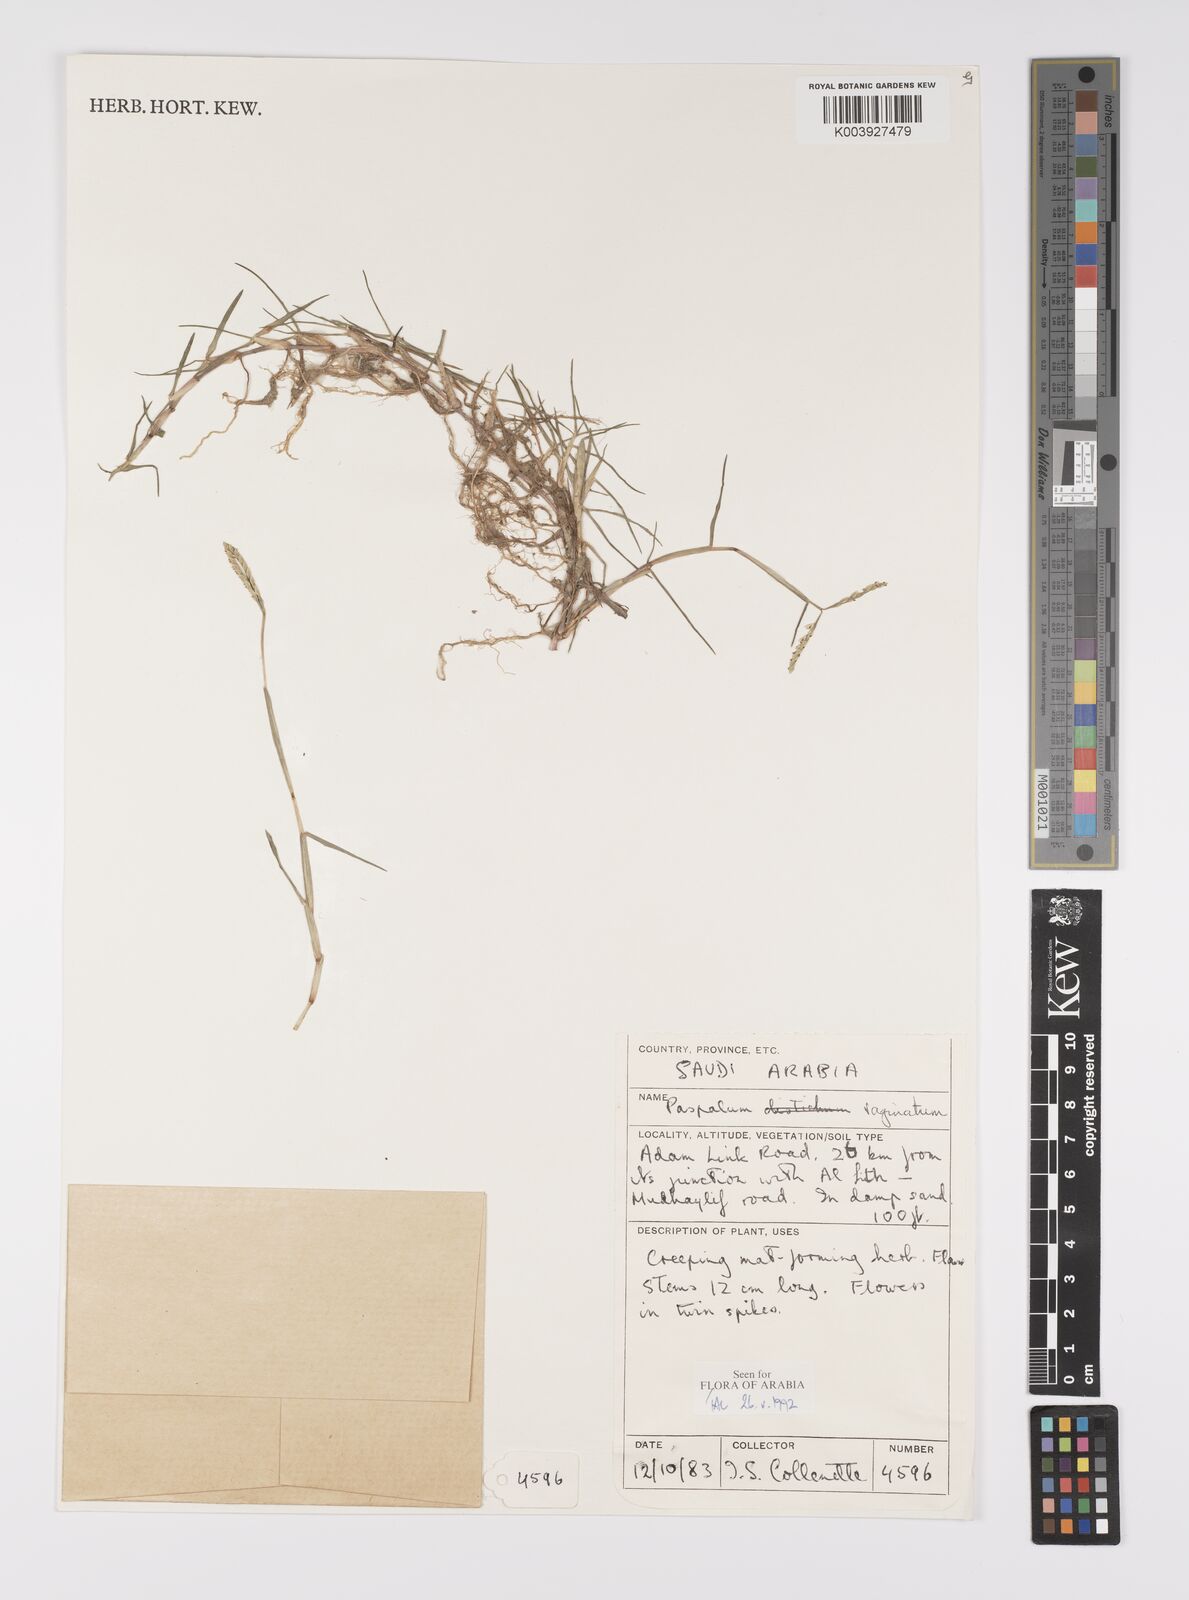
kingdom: Plantae
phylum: Tracheophyta
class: Liliopsida
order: Poales
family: Poaceae
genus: Paspalum
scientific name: Paspalum vaginatum
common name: Seashore paspalum
